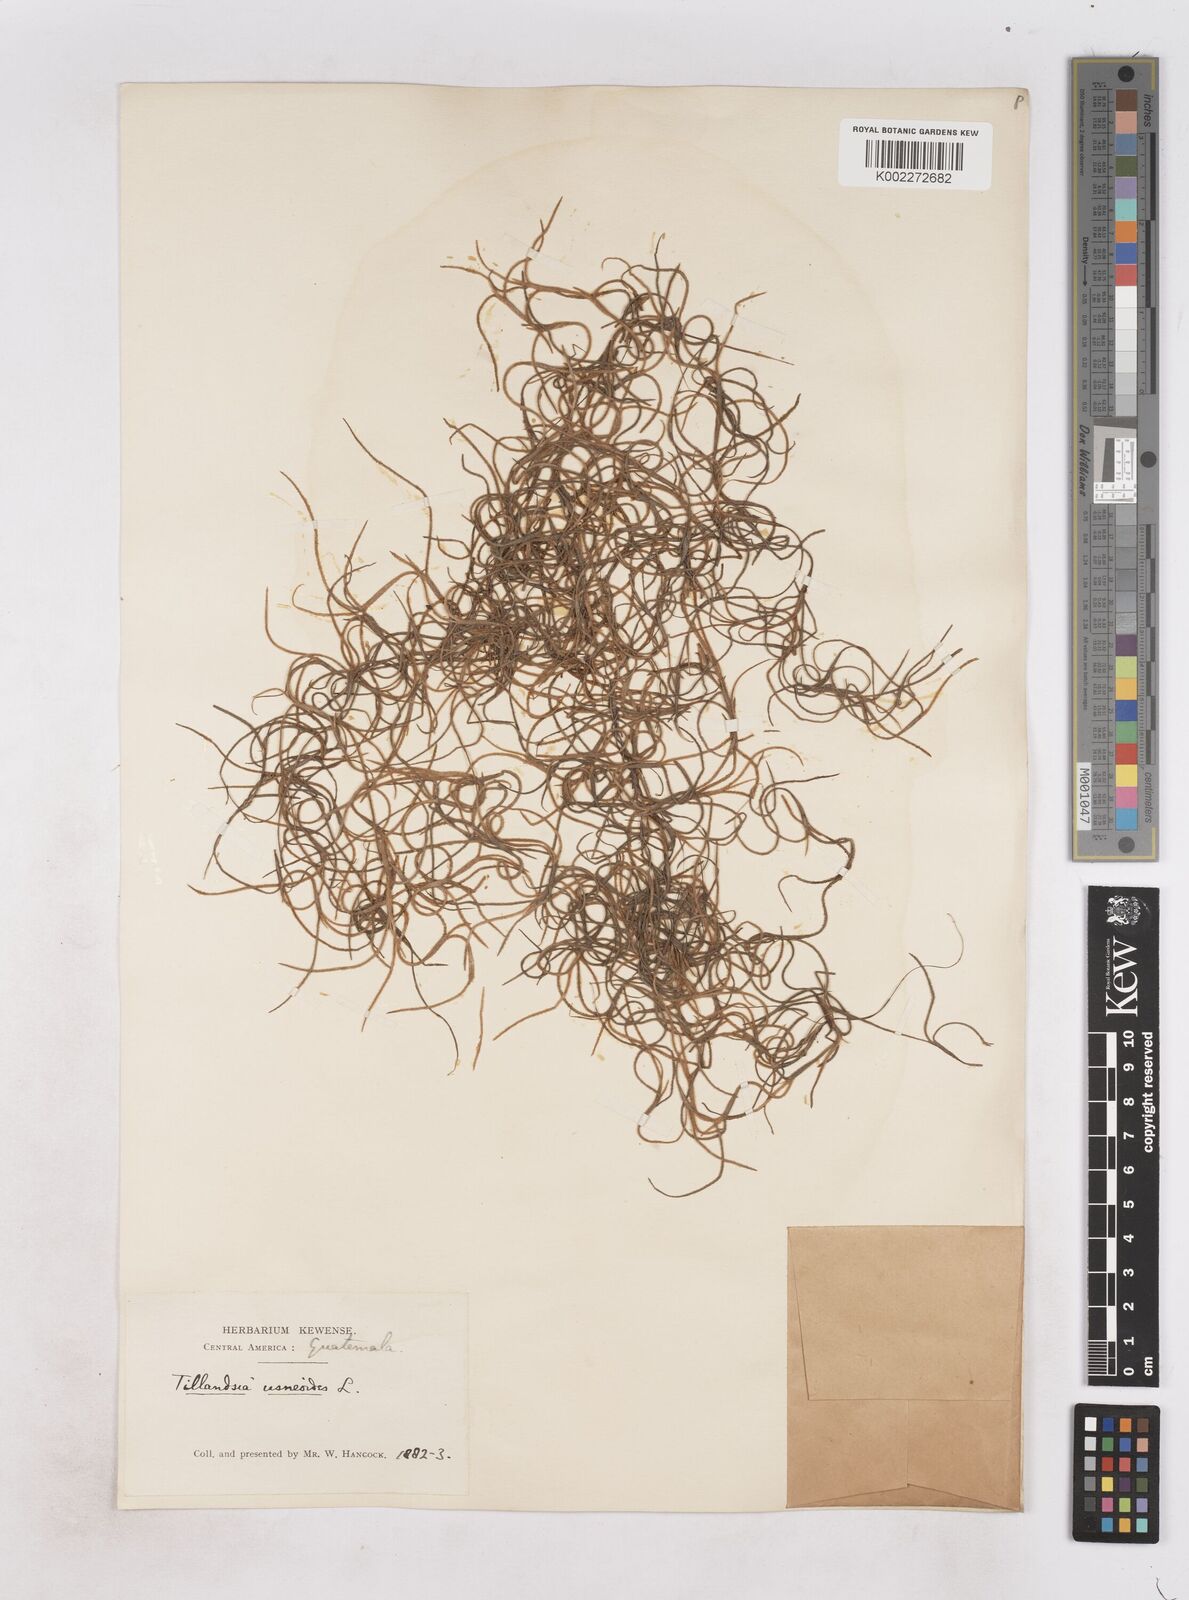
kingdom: Plantae
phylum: Tracheophyta
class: Liliopsida
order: Poales
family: Bromeliaceae
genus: Tillandsia
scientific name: Tillandsia usneoides
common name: Spanish moss
